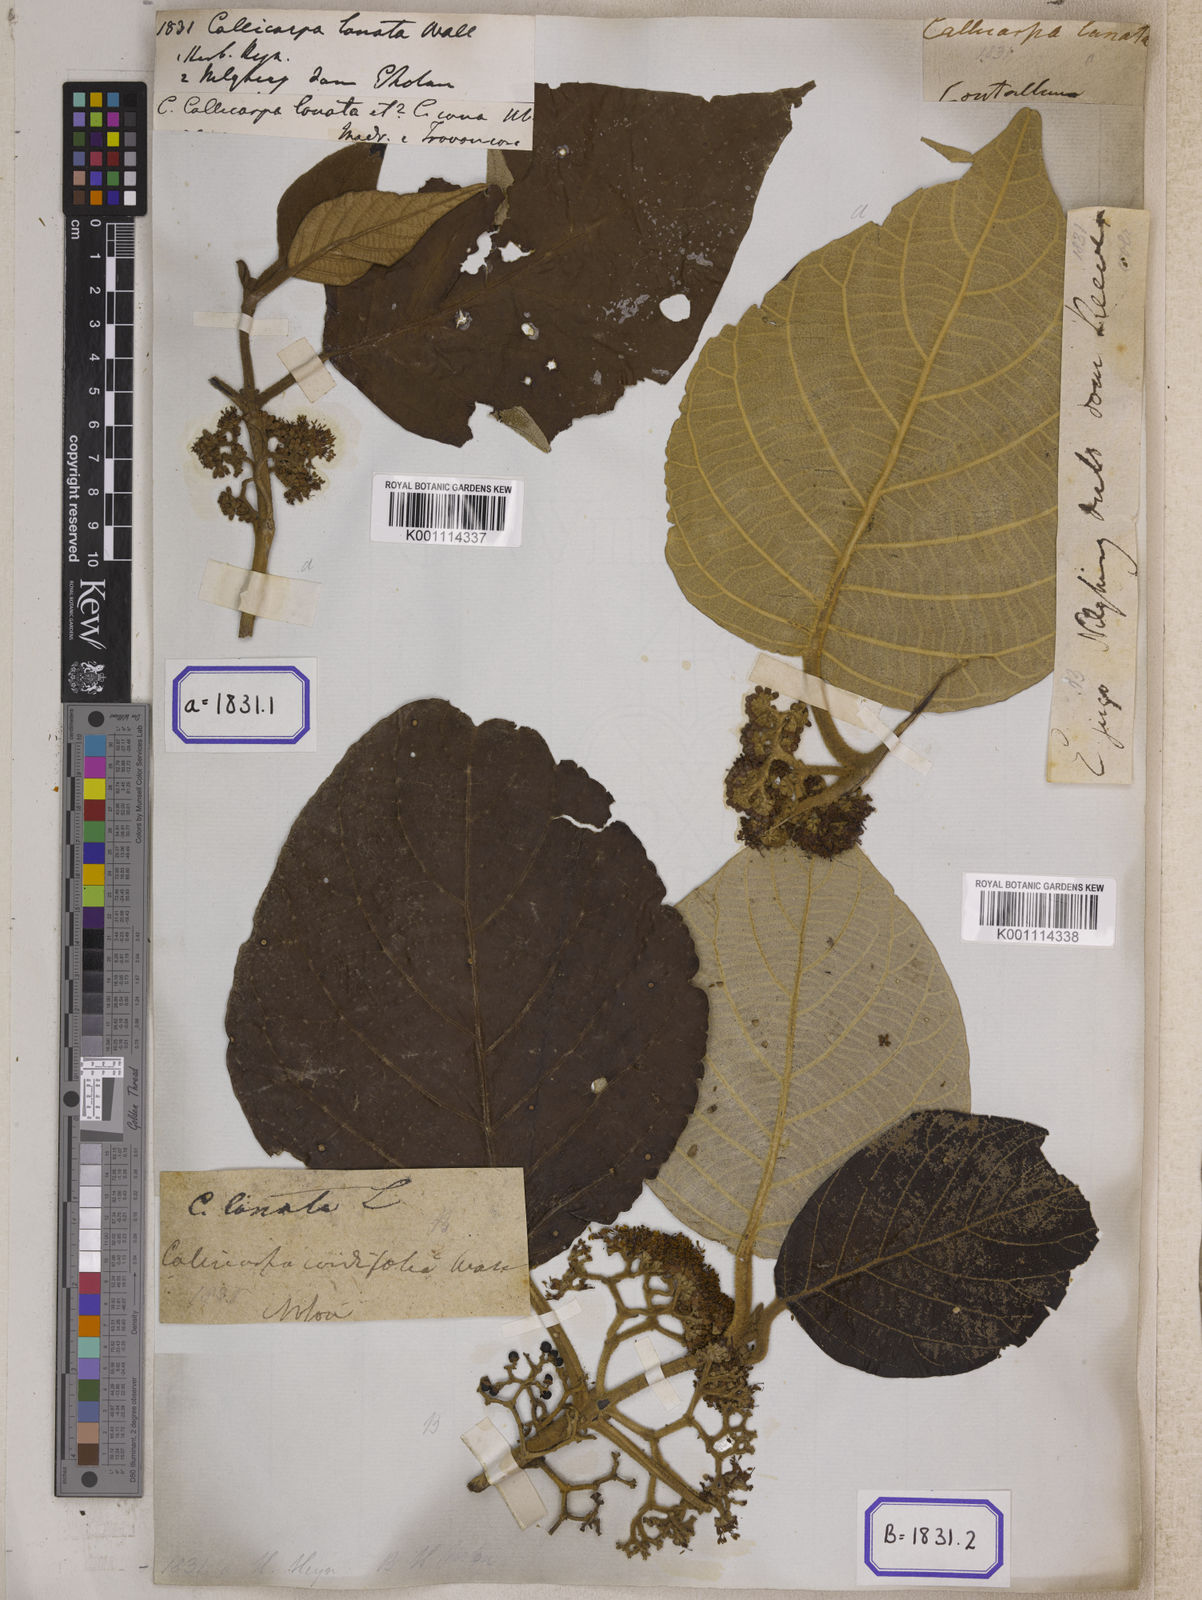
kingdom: Plantae
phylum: Tracheophyta
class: Magnoliopsida
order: Lamiales
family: Lamiaceae
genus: Callicarpa
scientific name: Callicarpa
